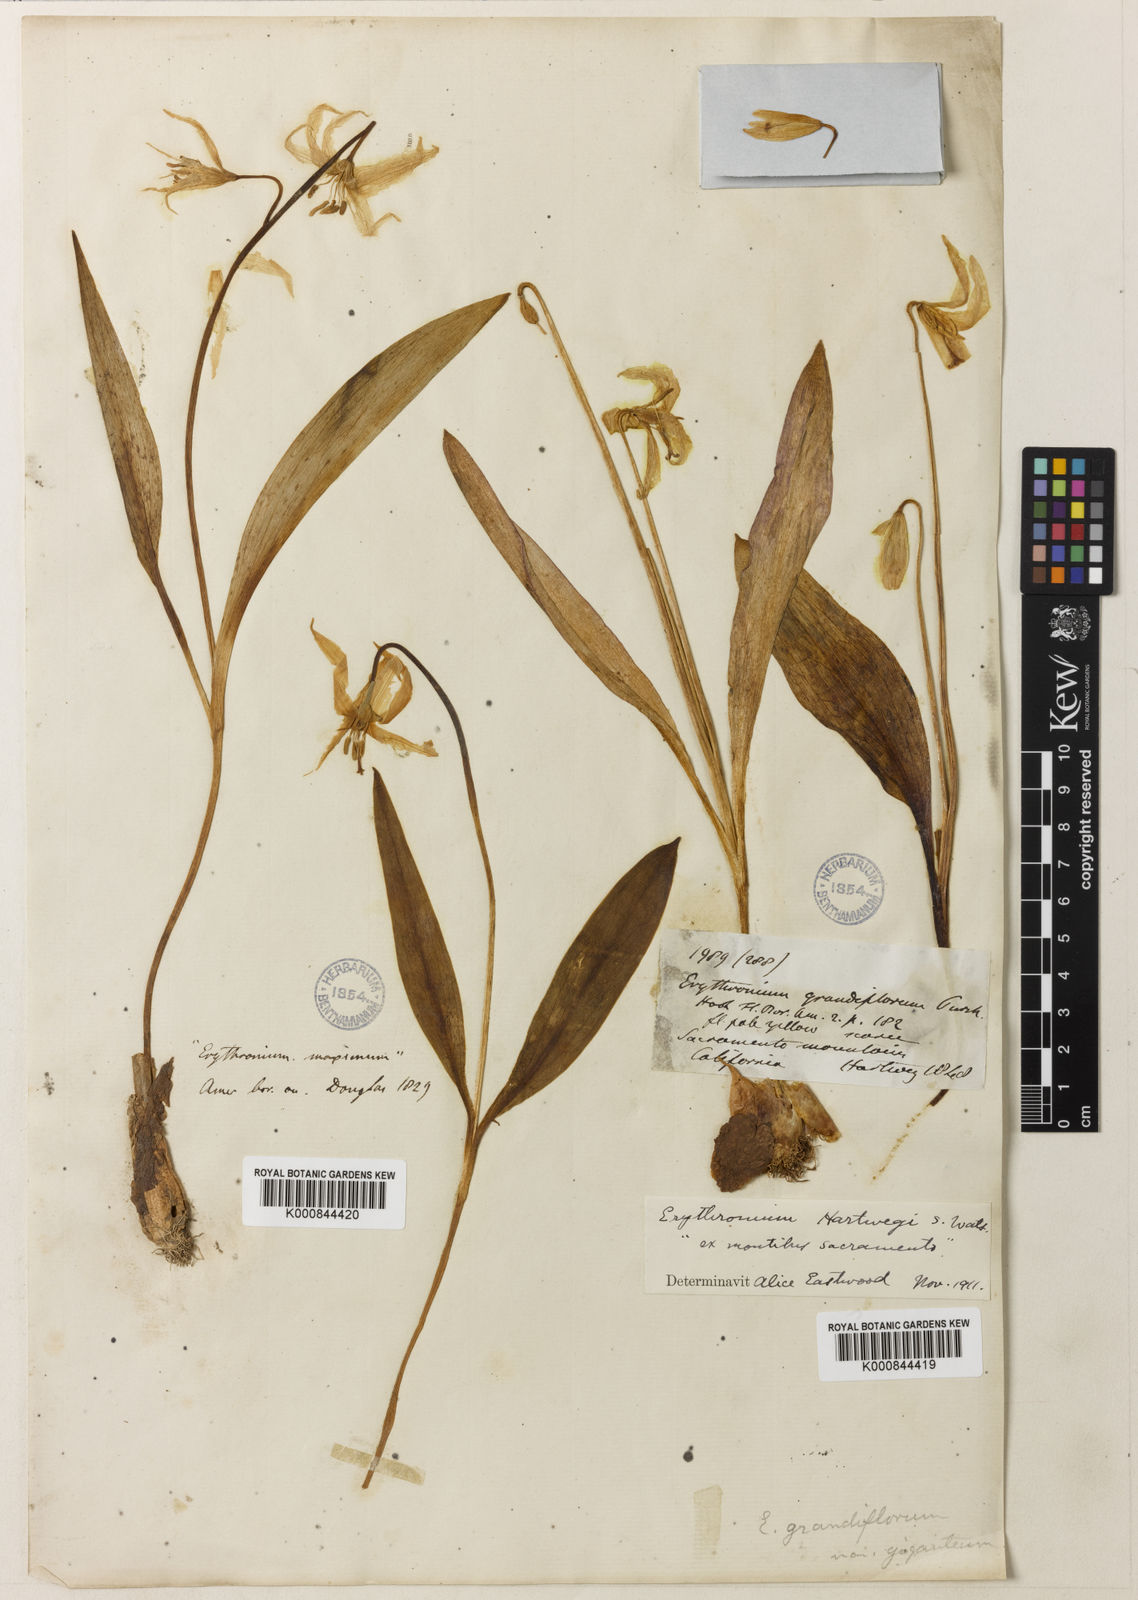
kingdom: Plantae
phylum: Tracheophyta
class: Liliopsida
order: Liliales
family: Liliaceae
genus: Erythronium
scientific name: Erythronium multiscapideum
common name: Sierra foothills fawn-lily
